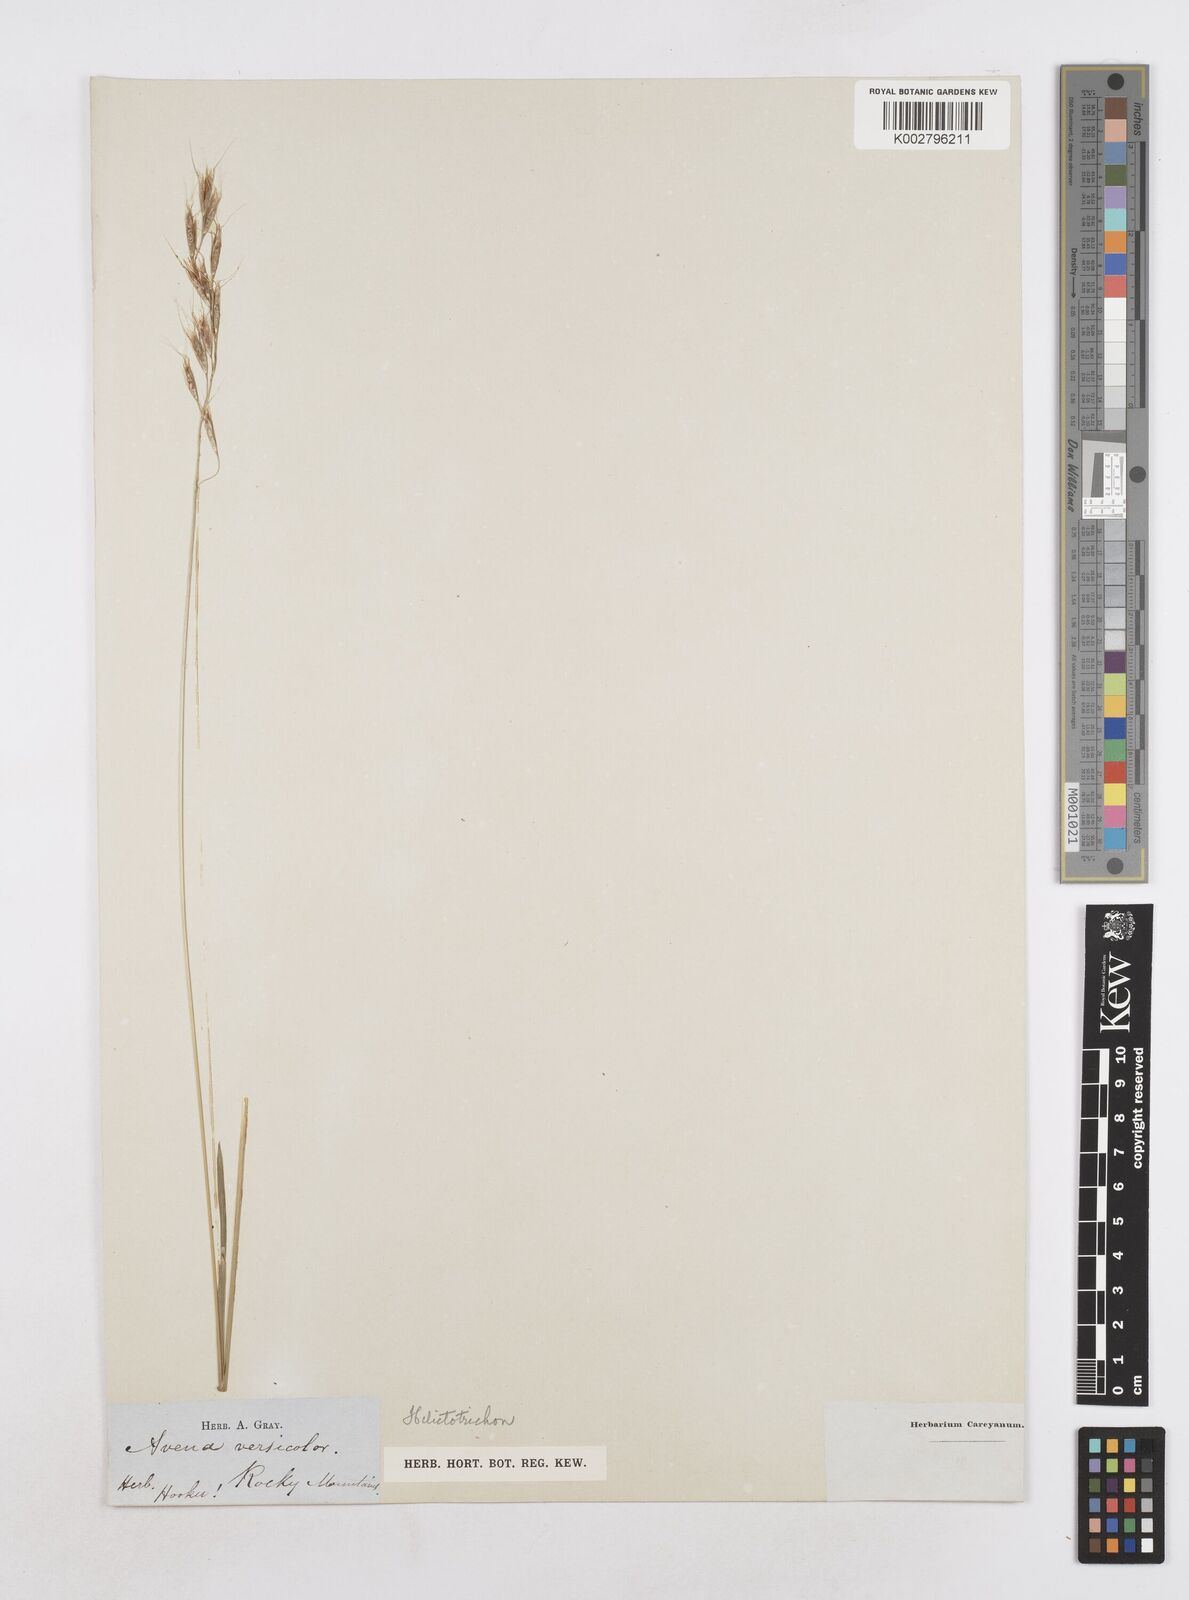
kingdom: Plantae
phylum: Tracheophyta
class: Liliopsida
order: Poales
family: Poaceae
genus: Helictotrichon
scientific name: Helictotrichon
